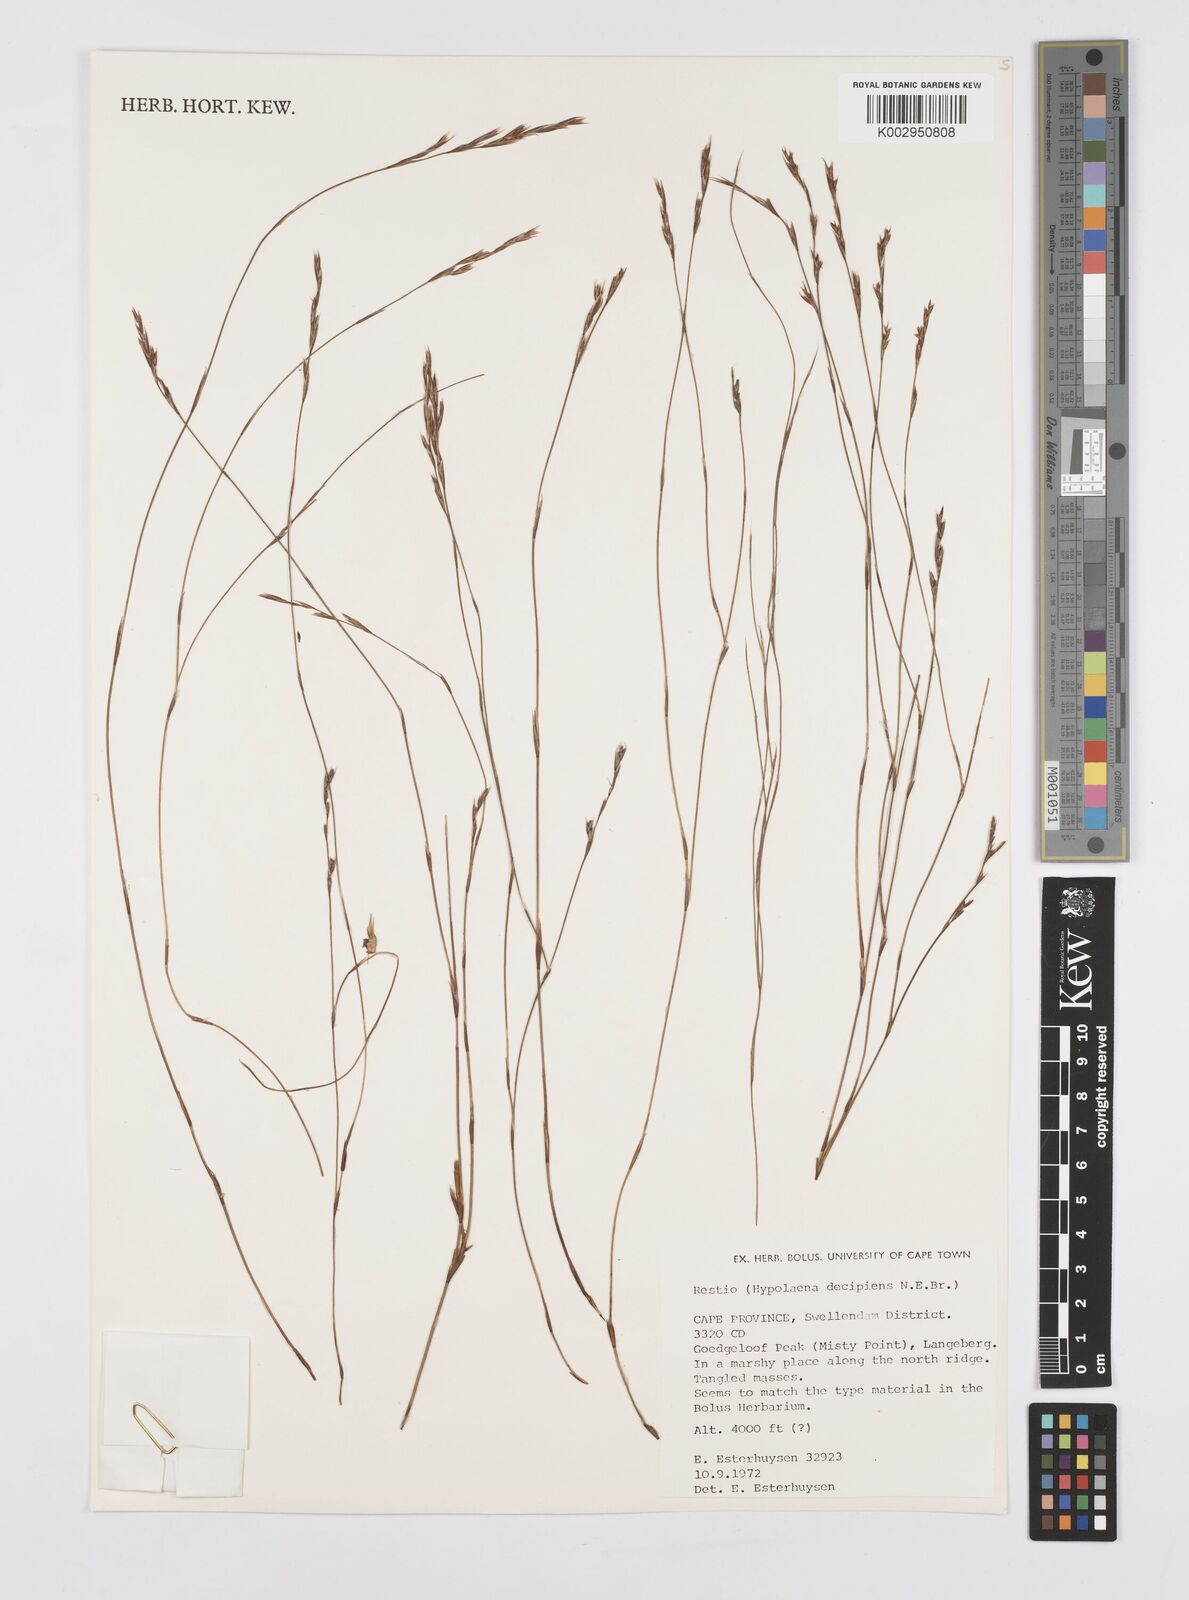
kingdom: Plantae
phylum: Tracheophyta
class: Liliopsida
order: Poales
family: Restionaceae
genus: Restio
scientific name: Restio decipiens
